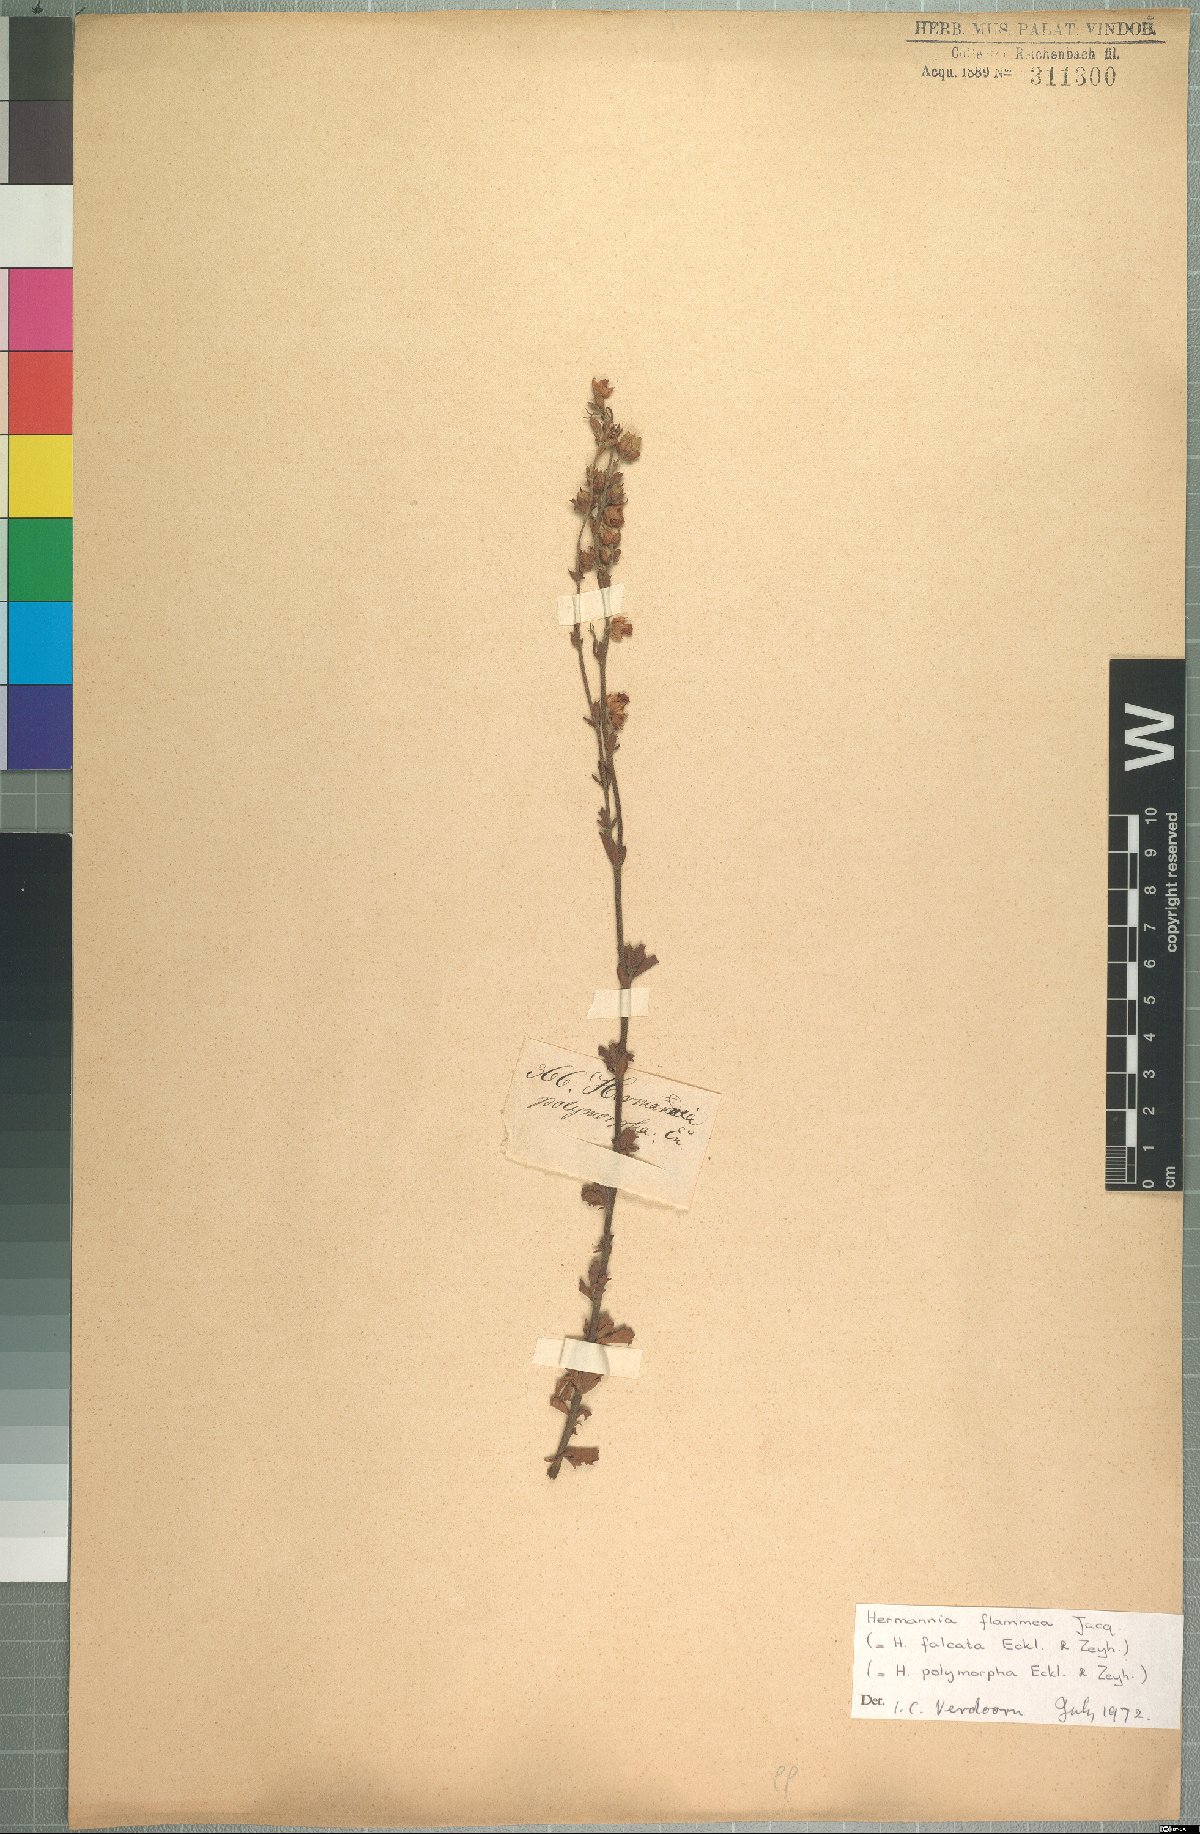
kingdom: Plantae
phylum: Tracheophyta
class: Magnoliopsida
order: Malvales
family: Malvaceae
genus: Hermannia
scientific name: Hermannia flammea
